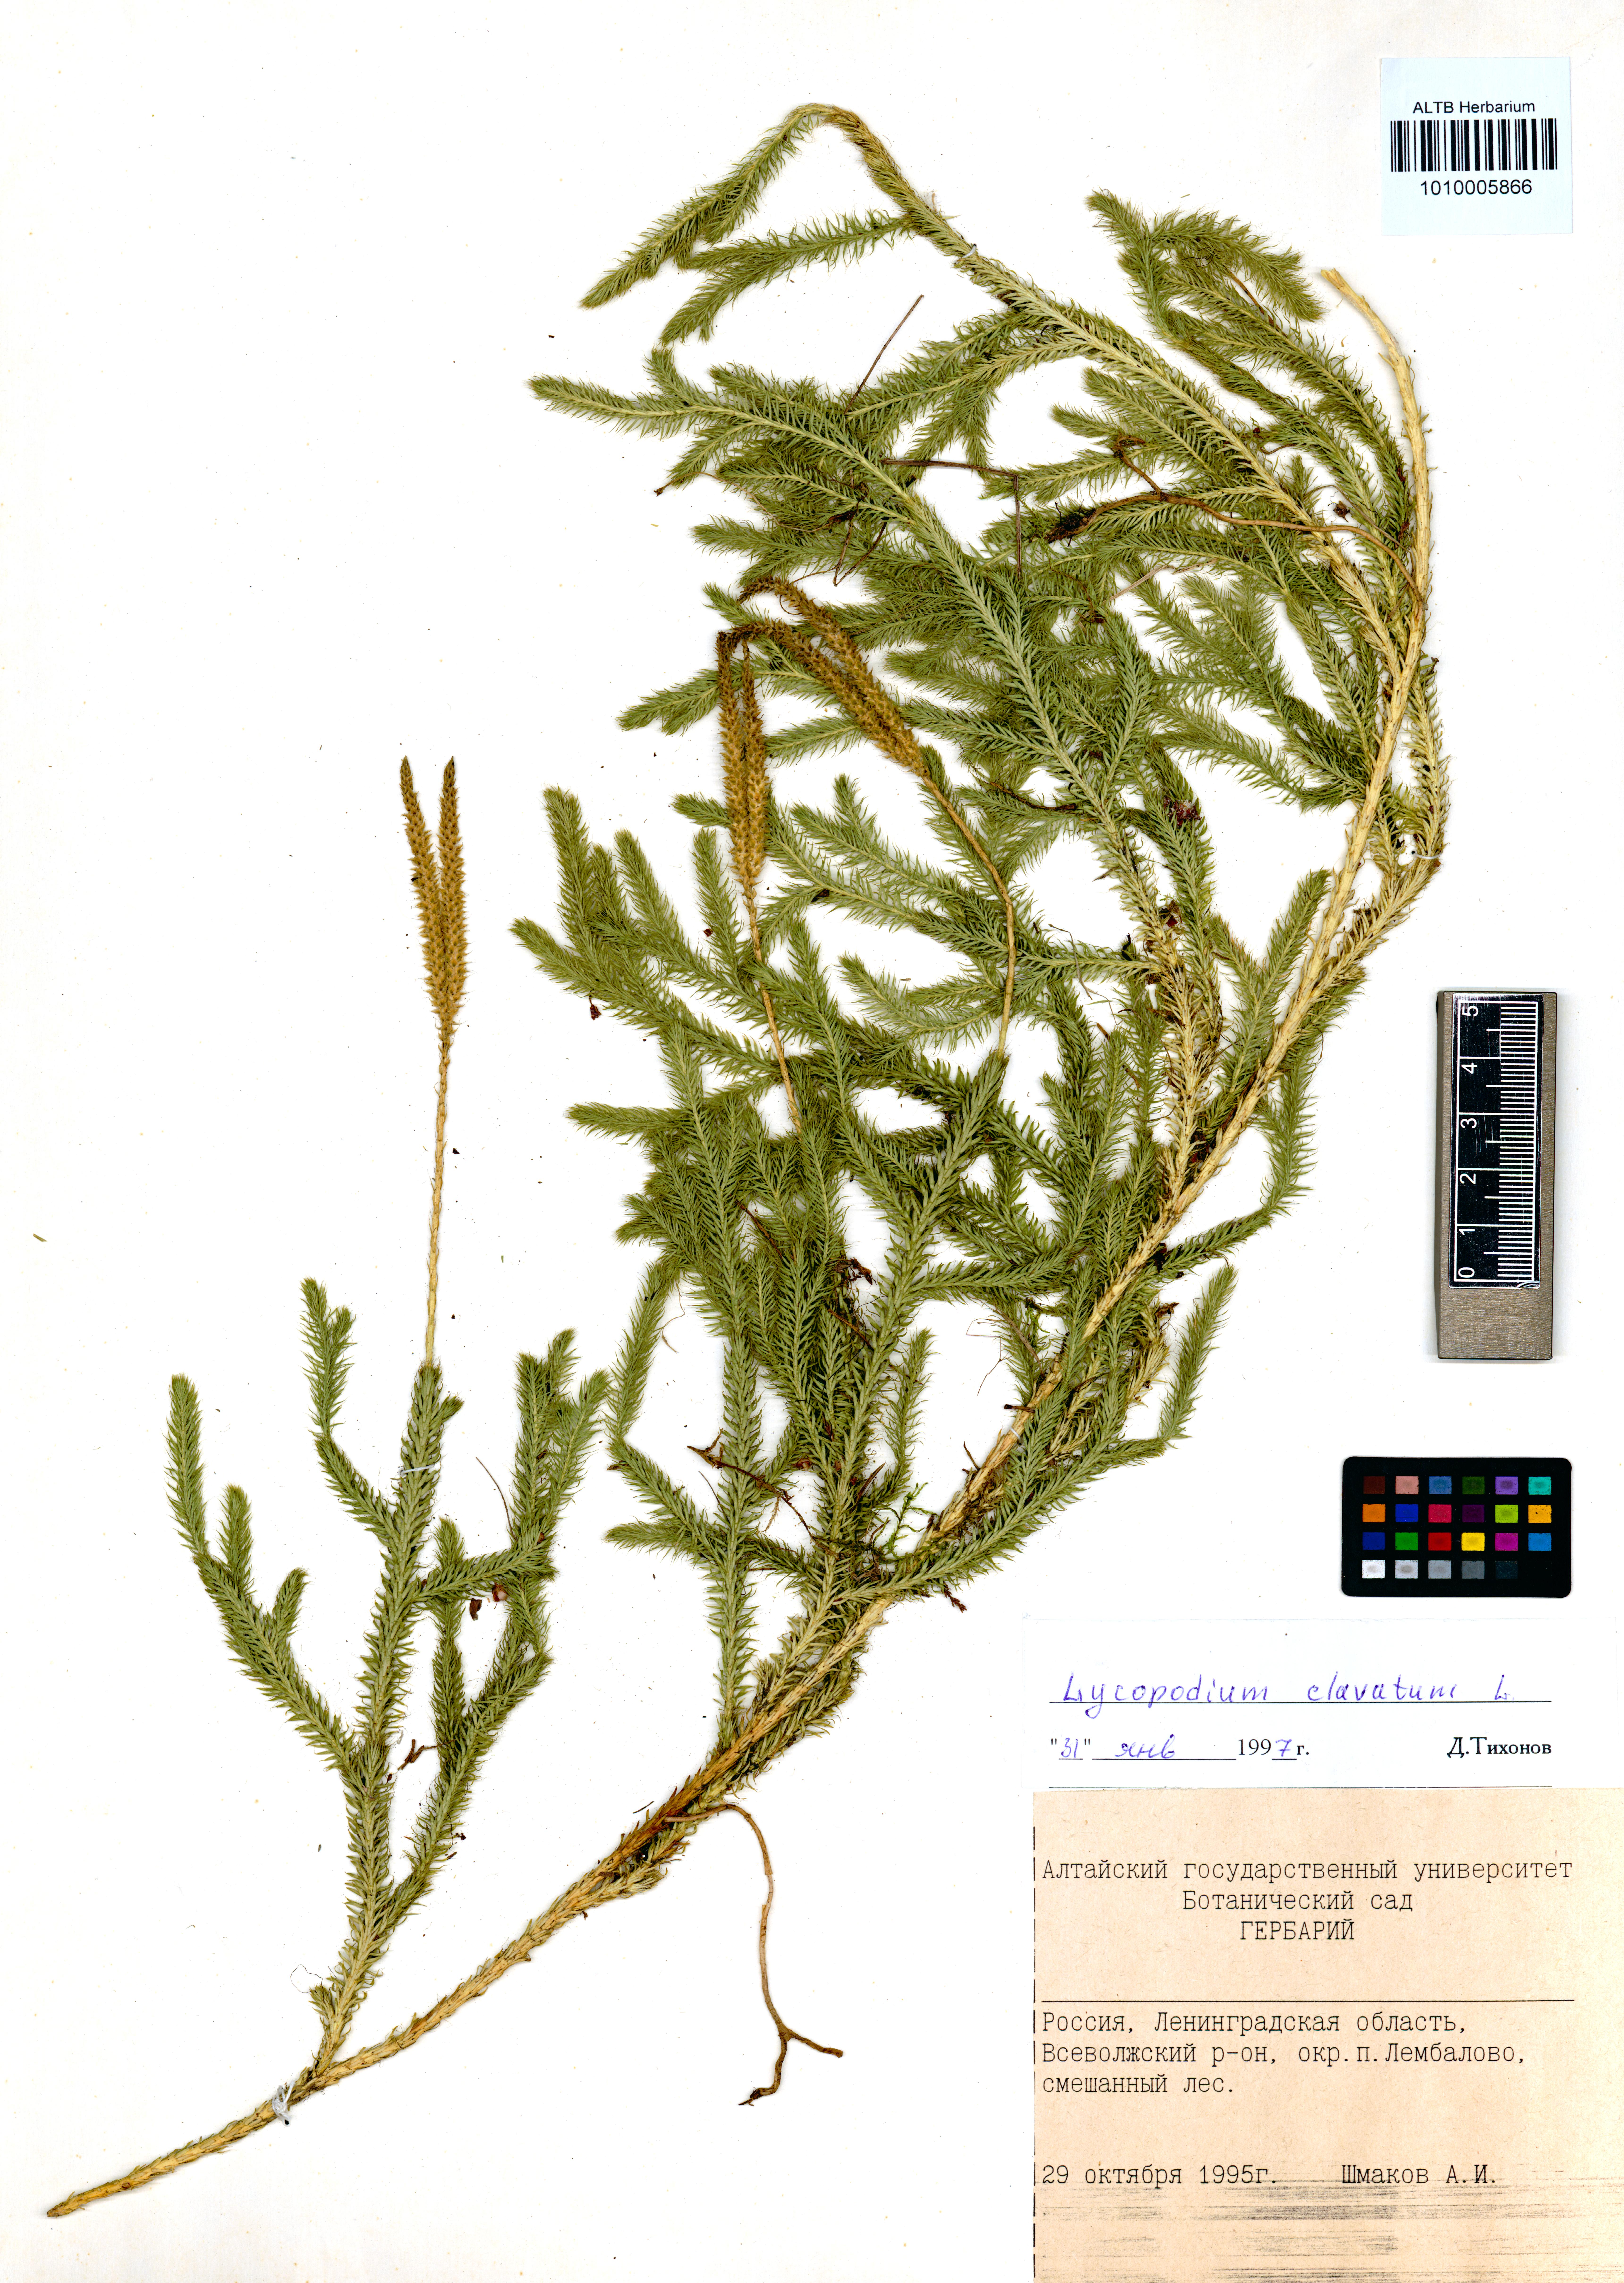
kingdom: Plantae
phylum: Tracheophyta
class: Lycopodiopsida
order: Lycopodiales
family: Lycopodiaceae
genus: Lycopodium
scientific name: Lycopodium clavatum
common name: Stag's-horn clubmoss
